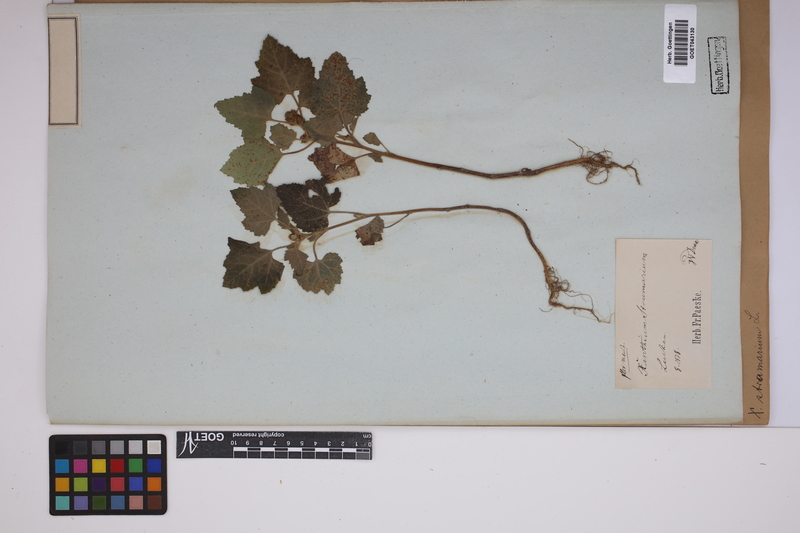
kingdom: Plantae
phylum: Tracheophyta
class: Magnoliopsida
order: Asterales
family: Asteraceae
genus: Xanthium
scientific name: Xanthium strumarium
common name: Rough cocklebur
